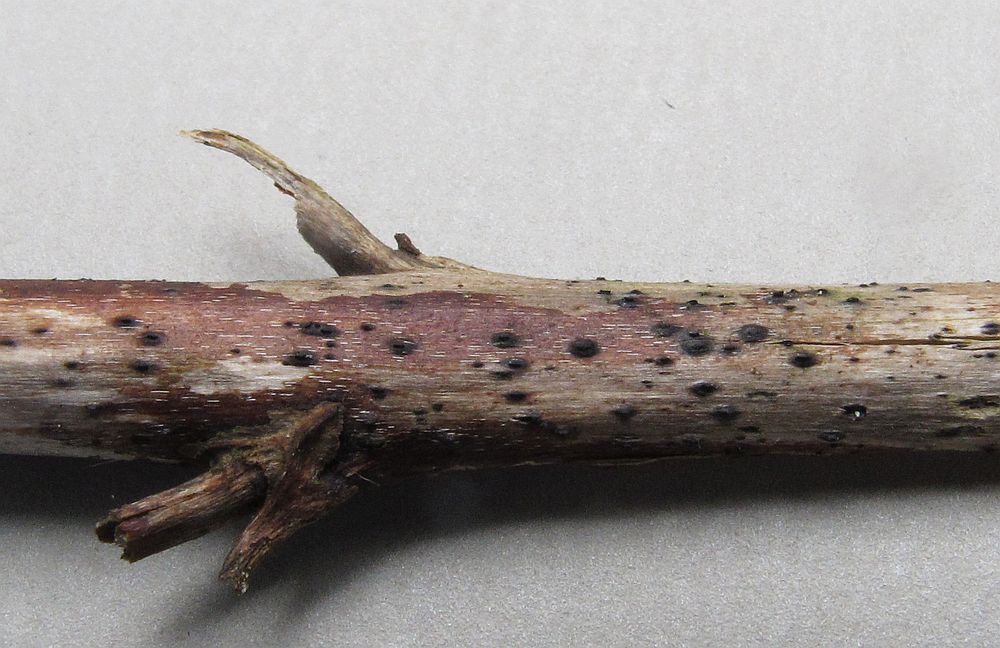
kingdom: Fungi
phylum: Ascomycota
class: Dothideomycetes
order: Pleosporales
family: Lophiostomataceae
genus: Lophiostoma
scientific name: Lophiostoma semiliberum
